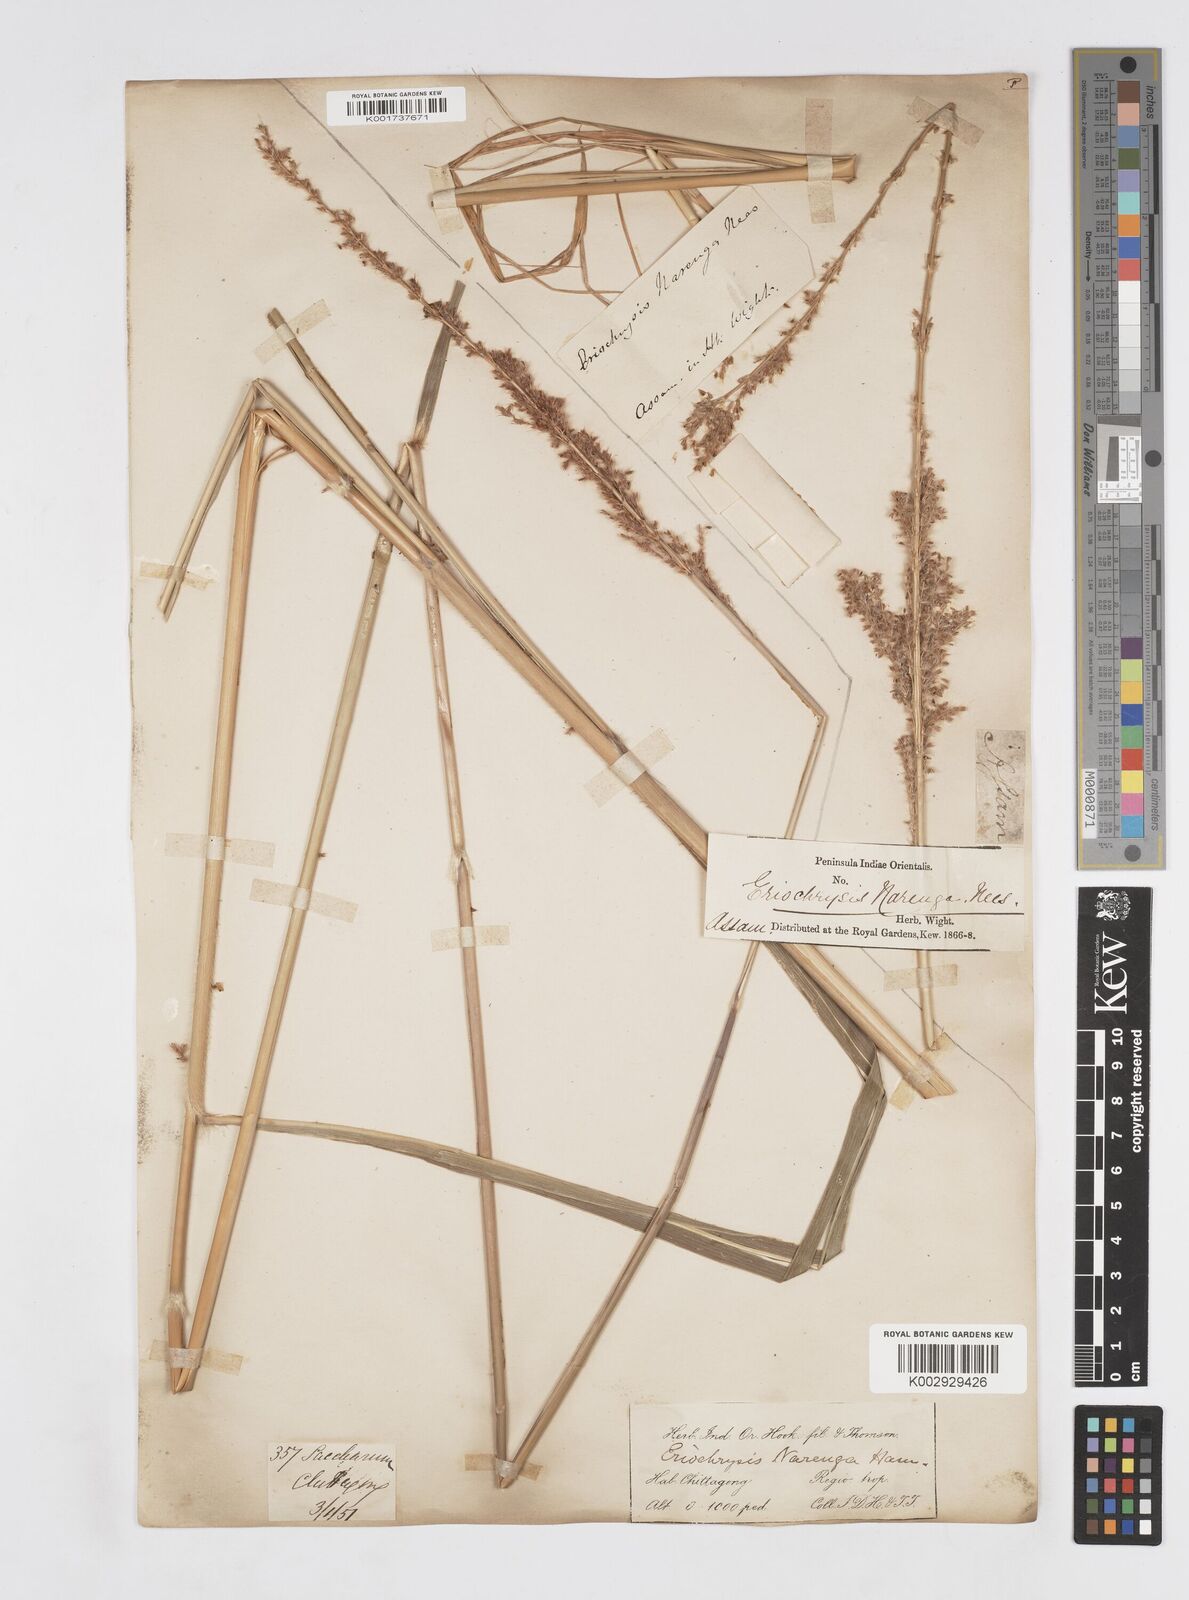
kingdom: Plantae
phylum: Tracheophyta
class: Liliopsida
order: Poales
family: Poaceae
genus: Narenga
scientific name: Narenga porphyrocoma
